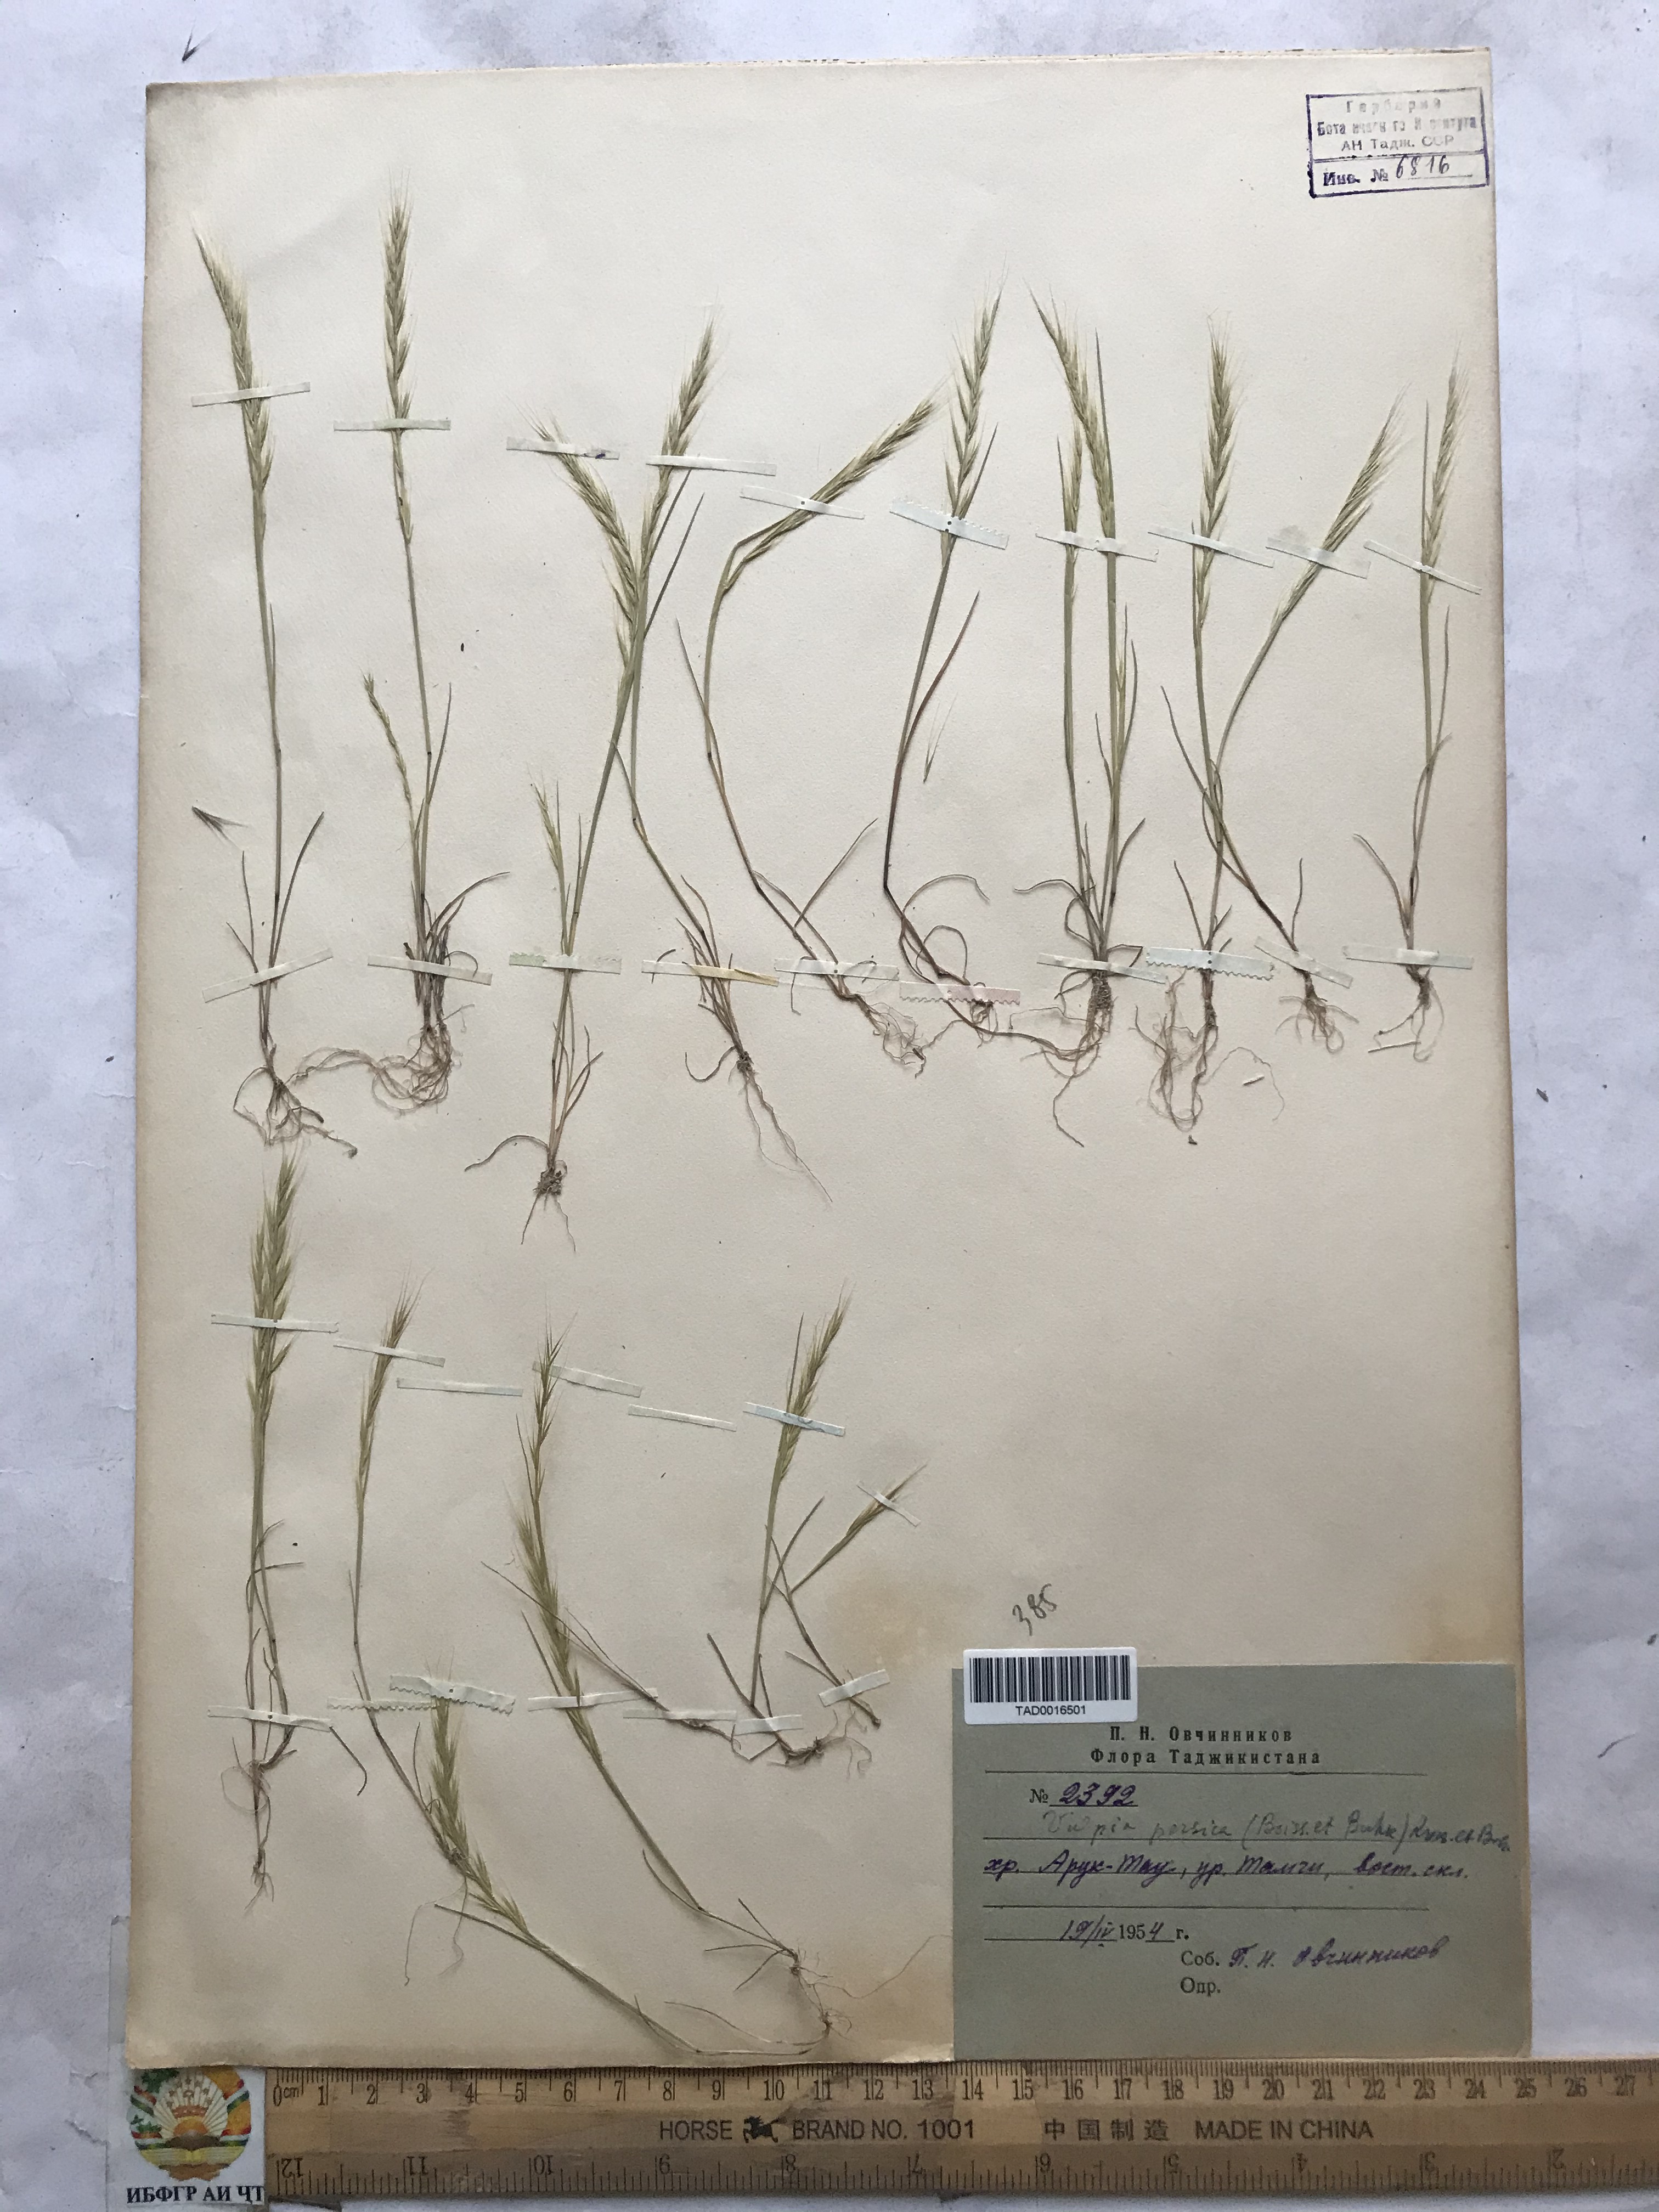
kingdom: Plantae
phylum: Tracheophyta
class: Liliopsida
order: Poales
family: Poaceae
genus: Festuca
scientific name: Festuca Vulpia persica
